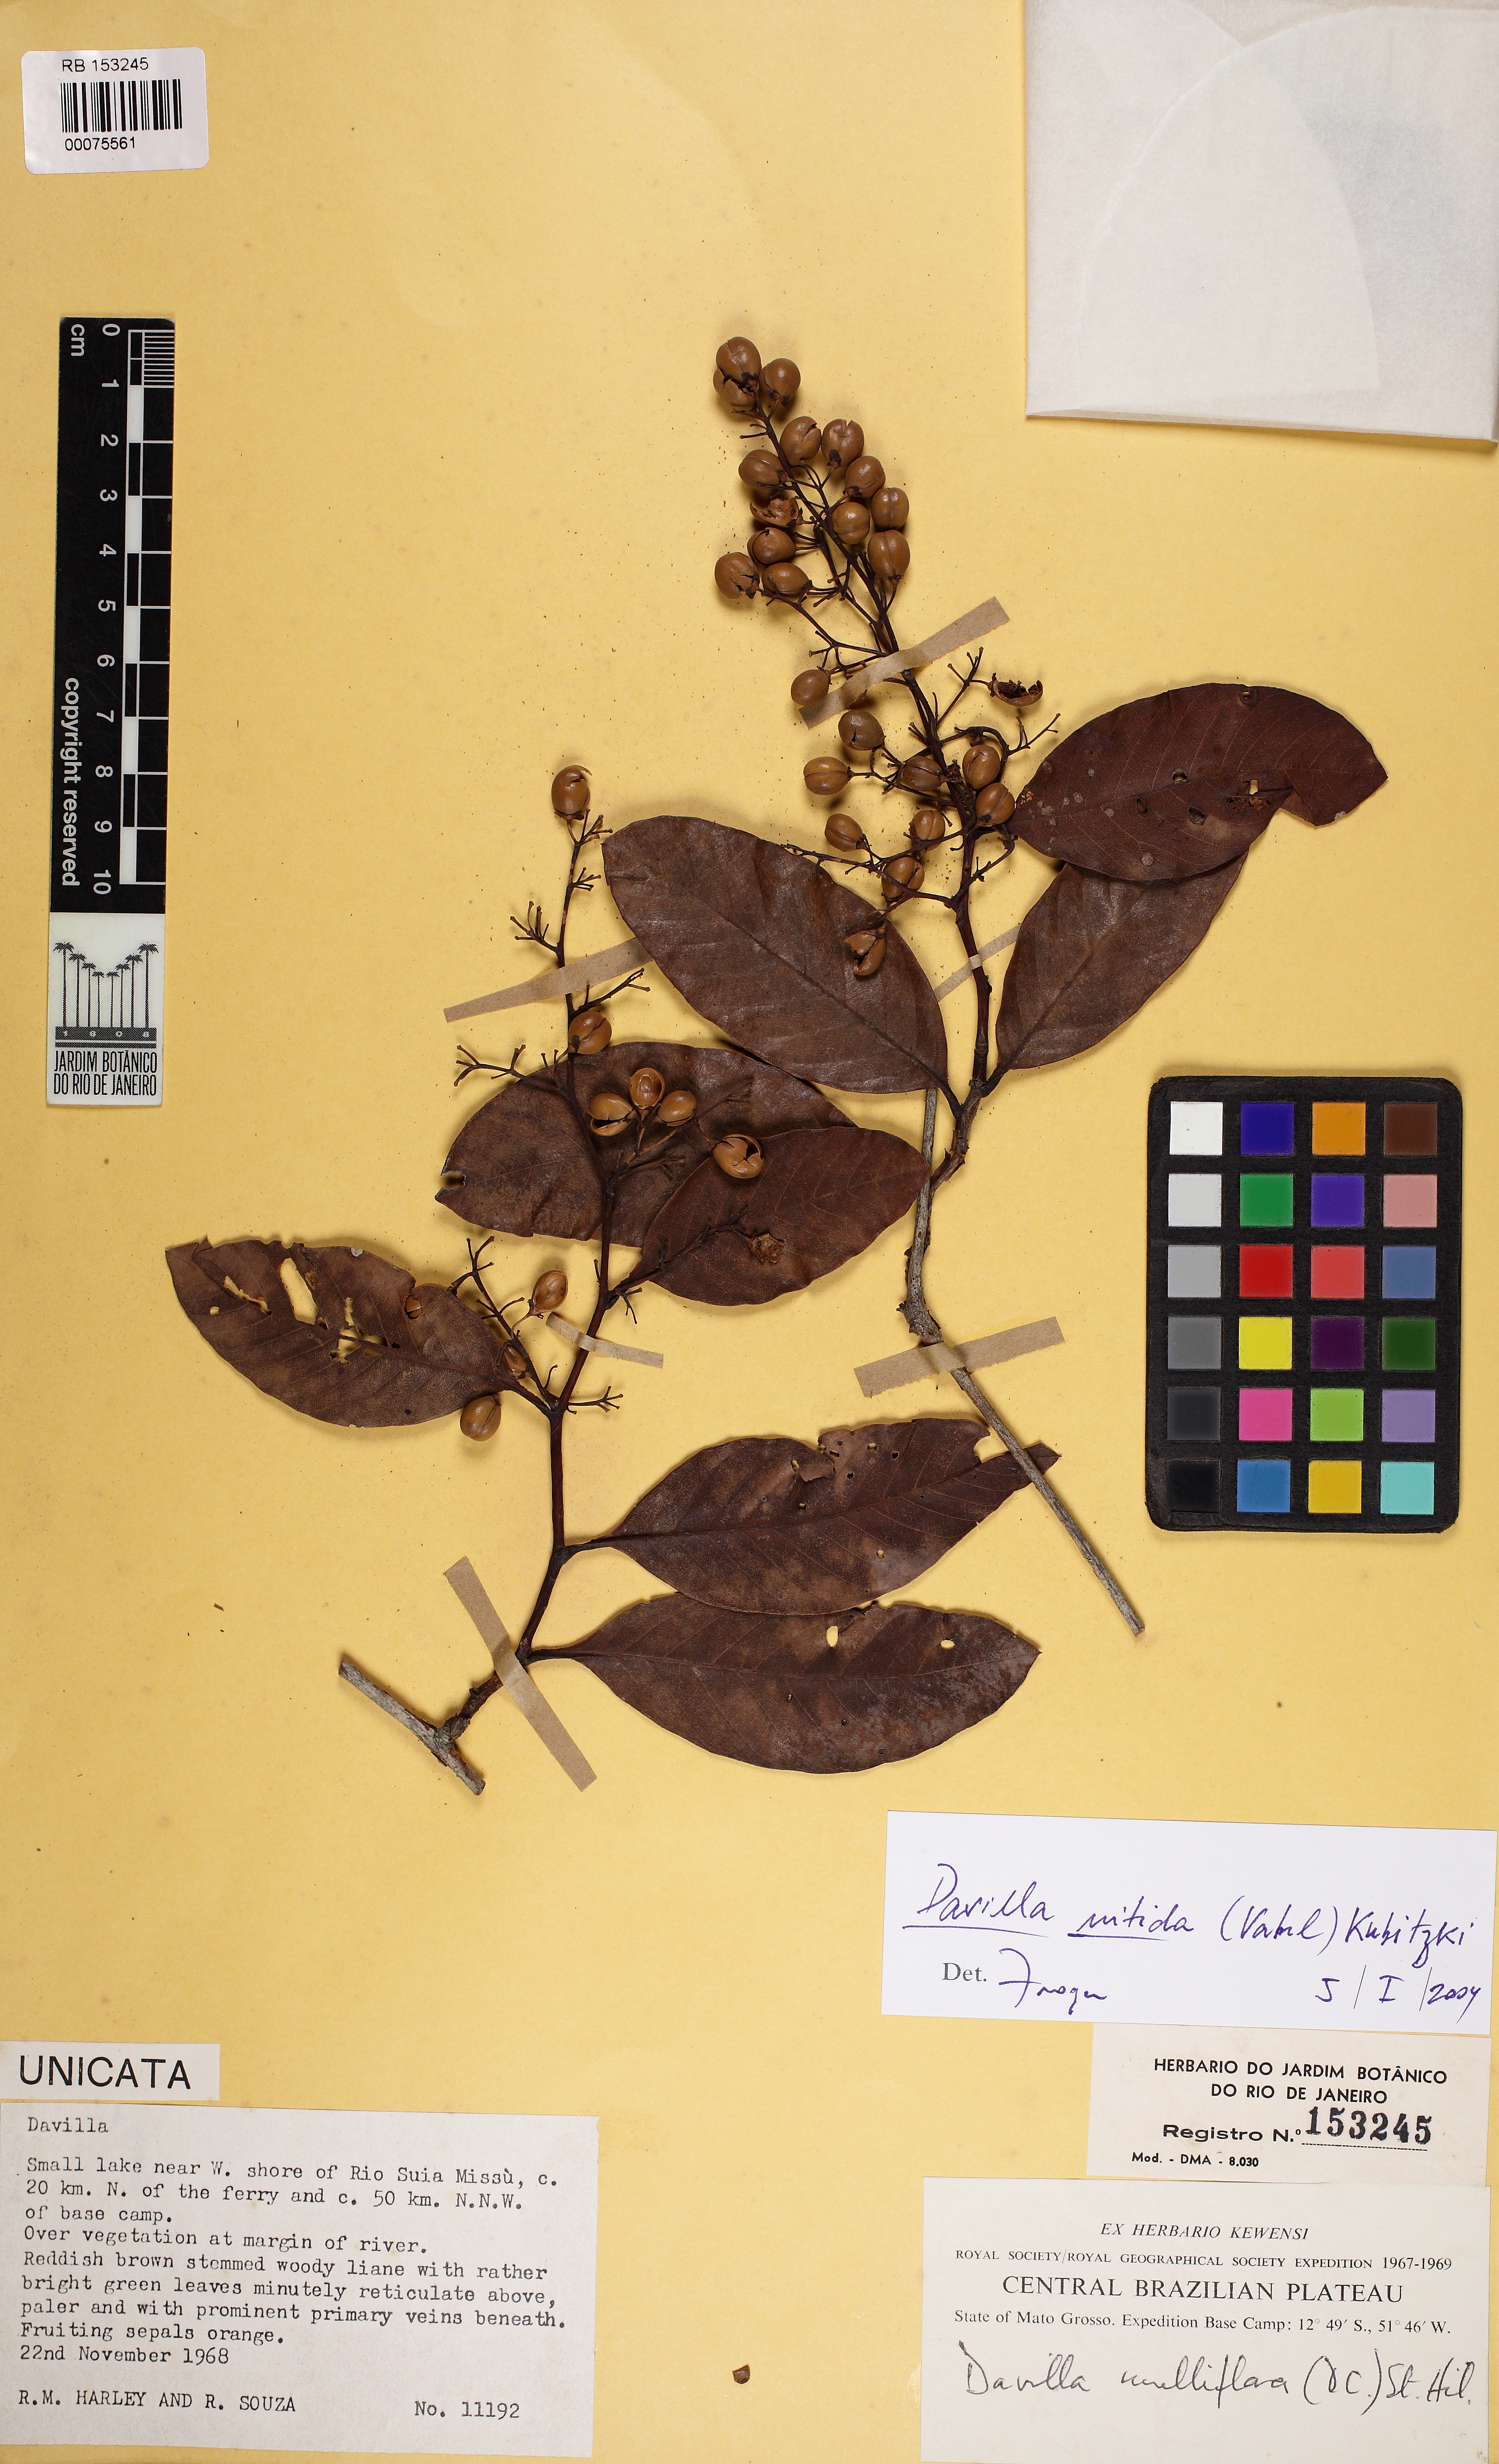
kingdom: Plantae
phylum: Tracheophyta
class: Magnoliopsida
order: Dilleniales
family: Dilleniaceae
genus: Davilla
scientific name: Davilla nitida
